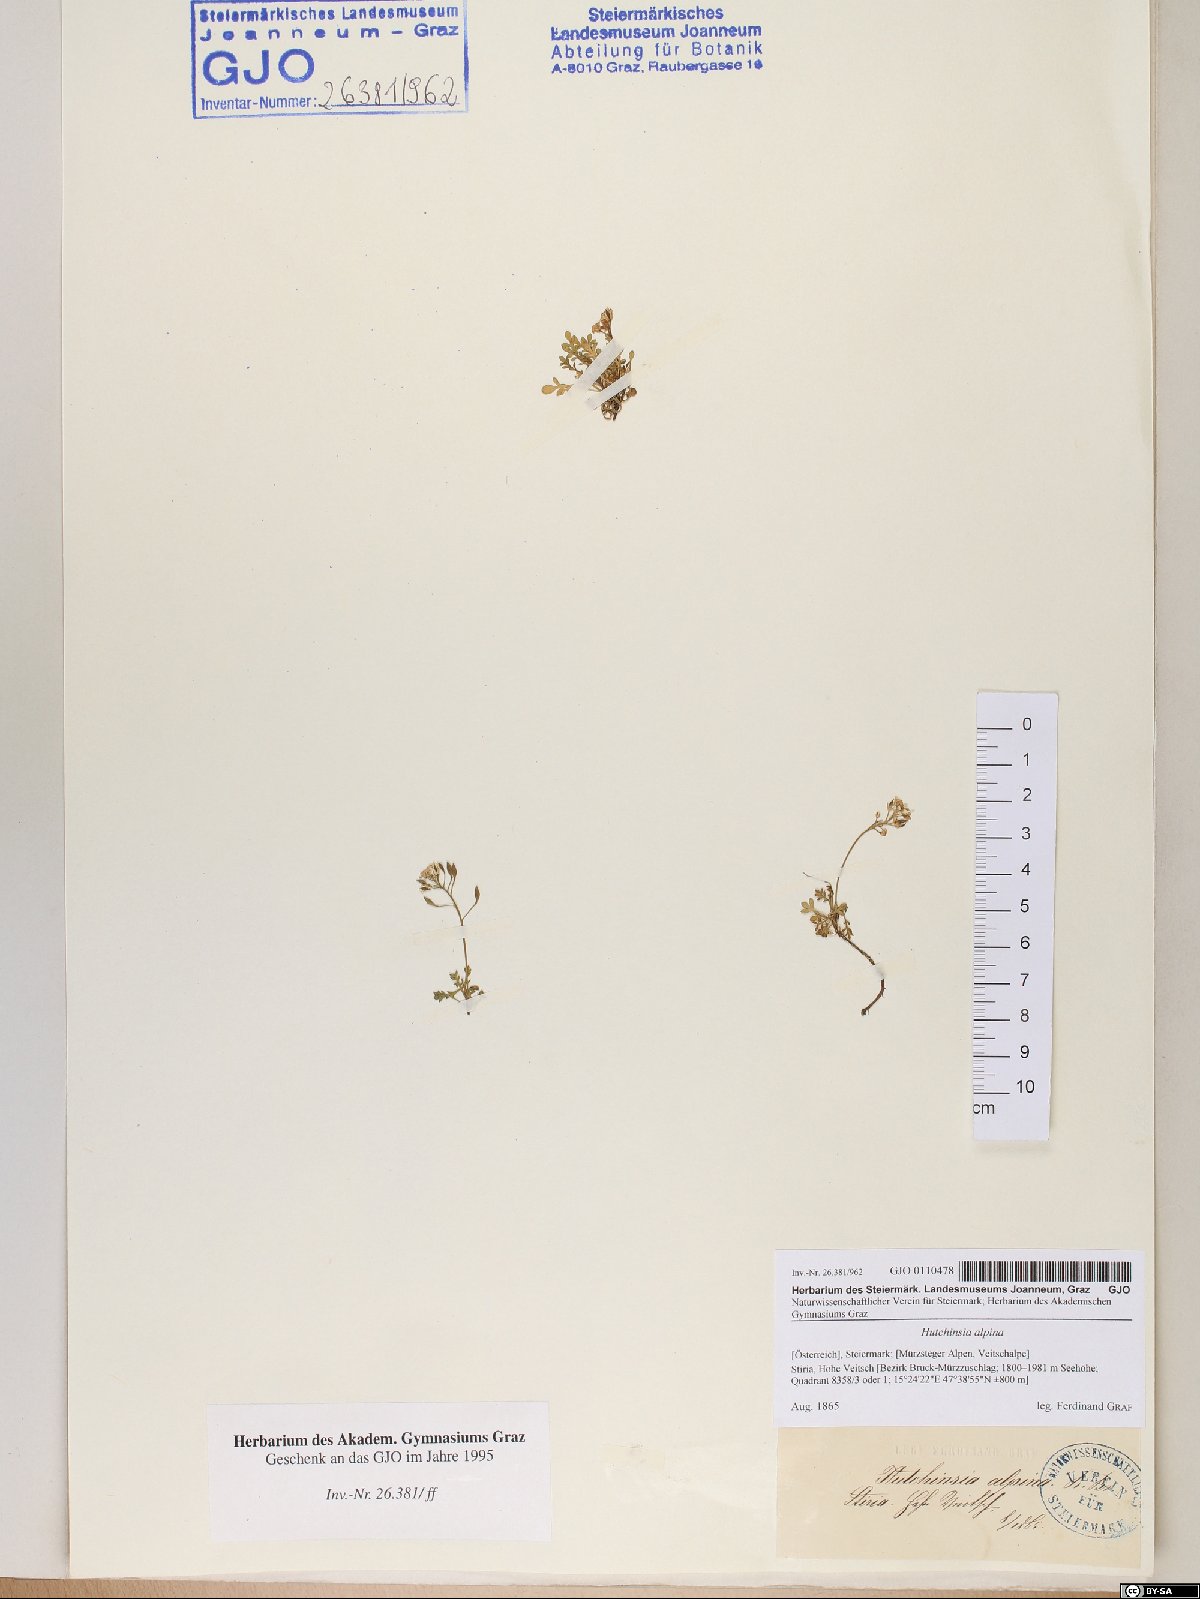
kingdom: Plantae
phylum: Tracheophyta
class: Magnoliopsida
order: Brassicales
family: Brassicaceae
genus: Hornungia
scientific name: Hornungia alpina
